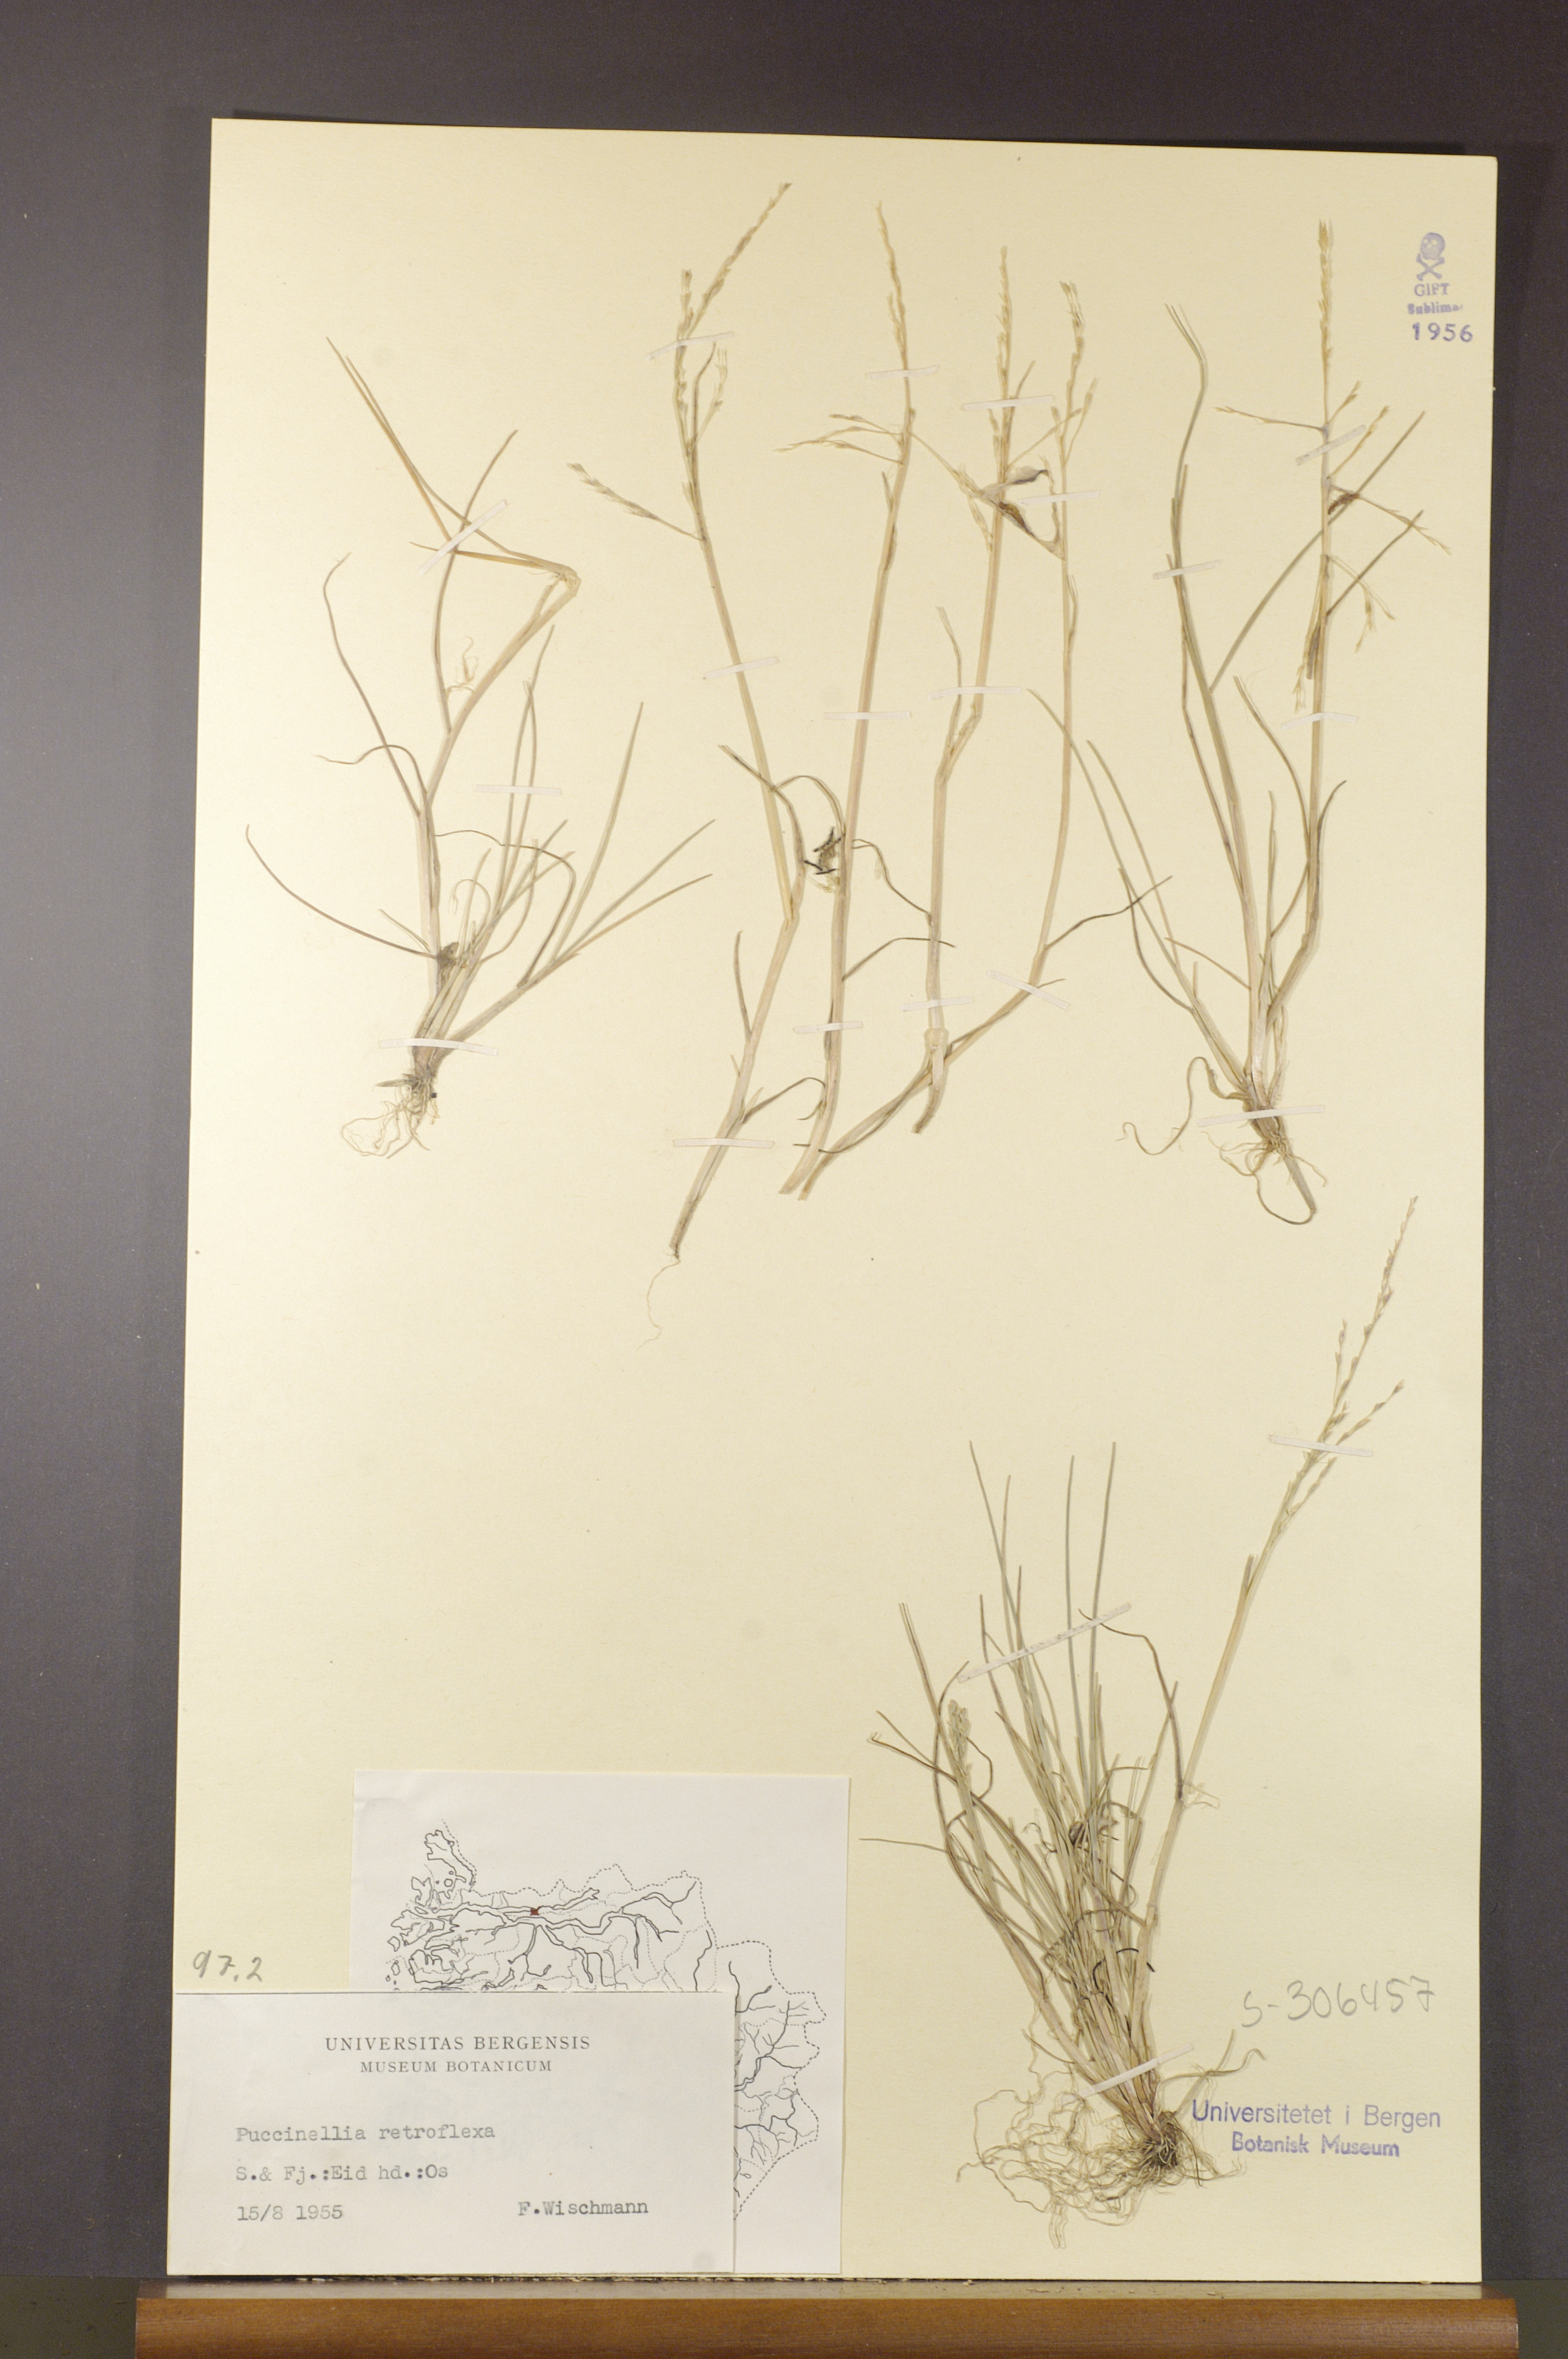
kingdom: Plantae
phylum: Tracheophyta
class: Liliopsida
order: Poales
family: Poaceae
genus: Puccinellia
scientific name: Puccinellia distans
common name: Weeping alkaligrass
